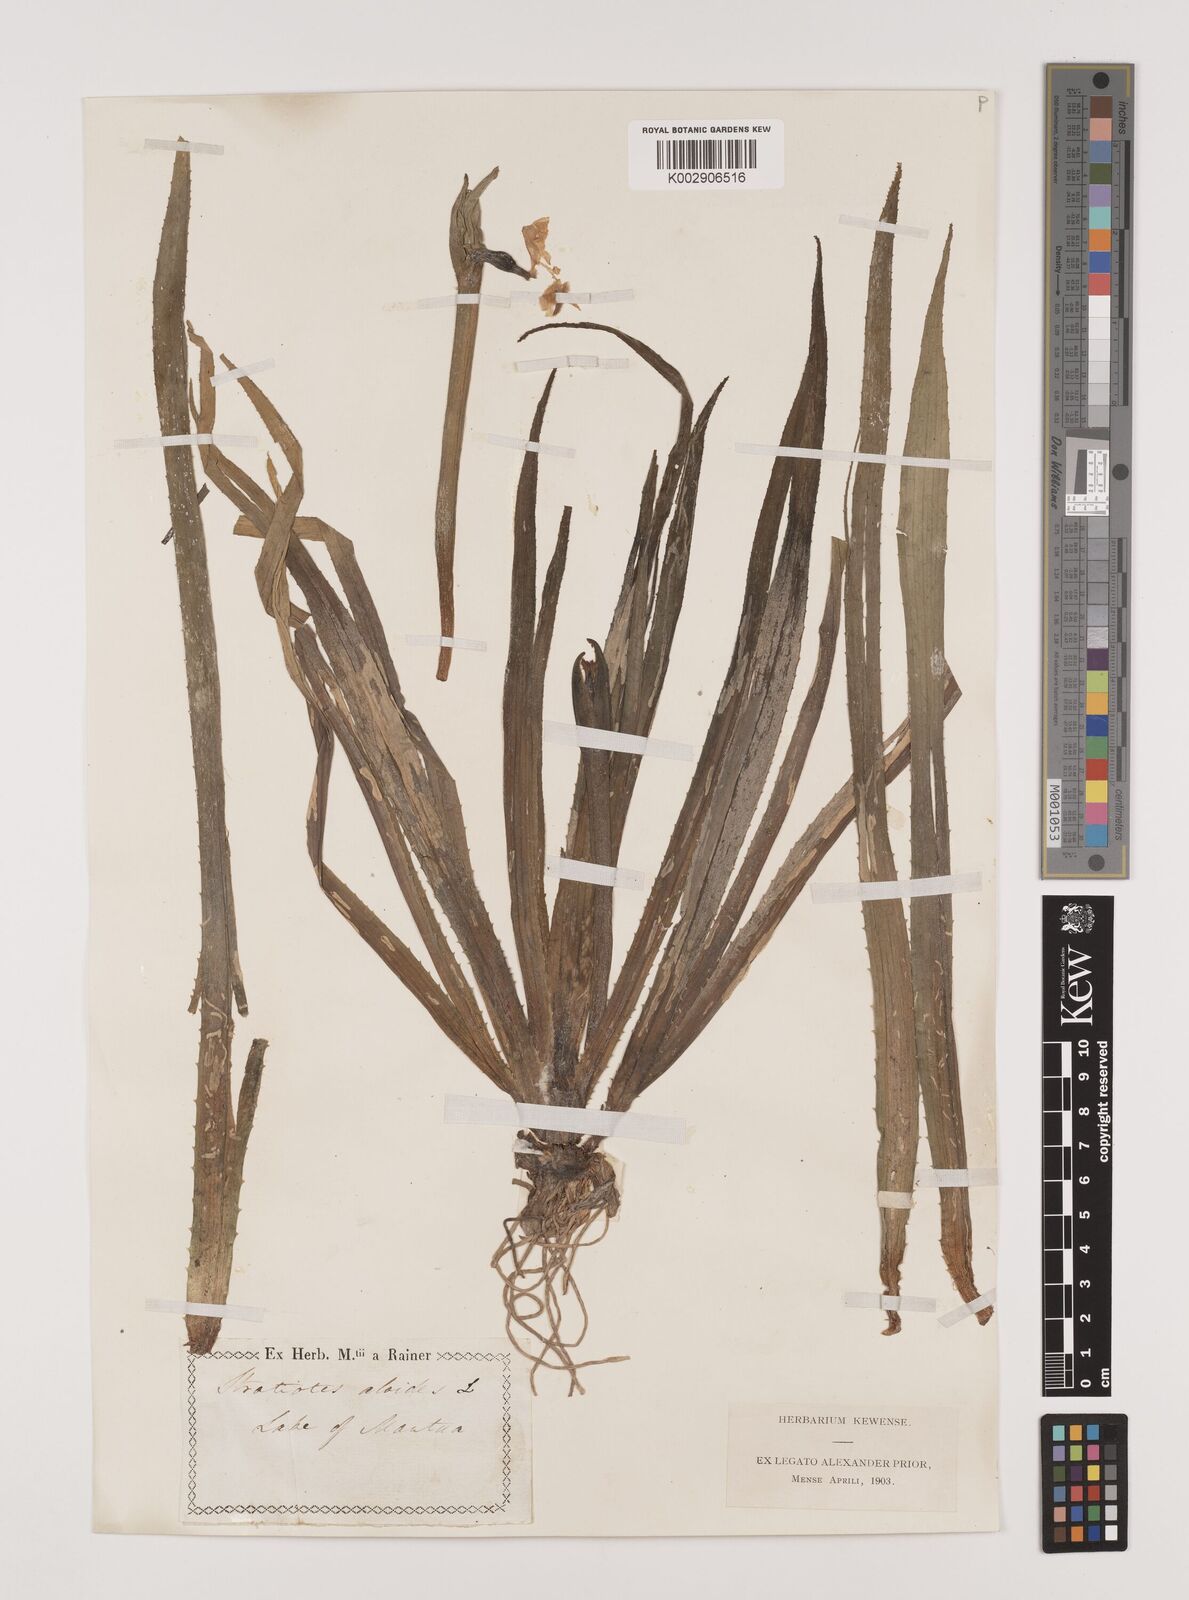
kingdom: Plantae
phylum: Tracheophyta
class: Liliopsida
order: Alismatales
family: Hydrocharitaceae
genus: Stratiotes
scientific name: Stratiotes aloides
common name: Water-soldier
